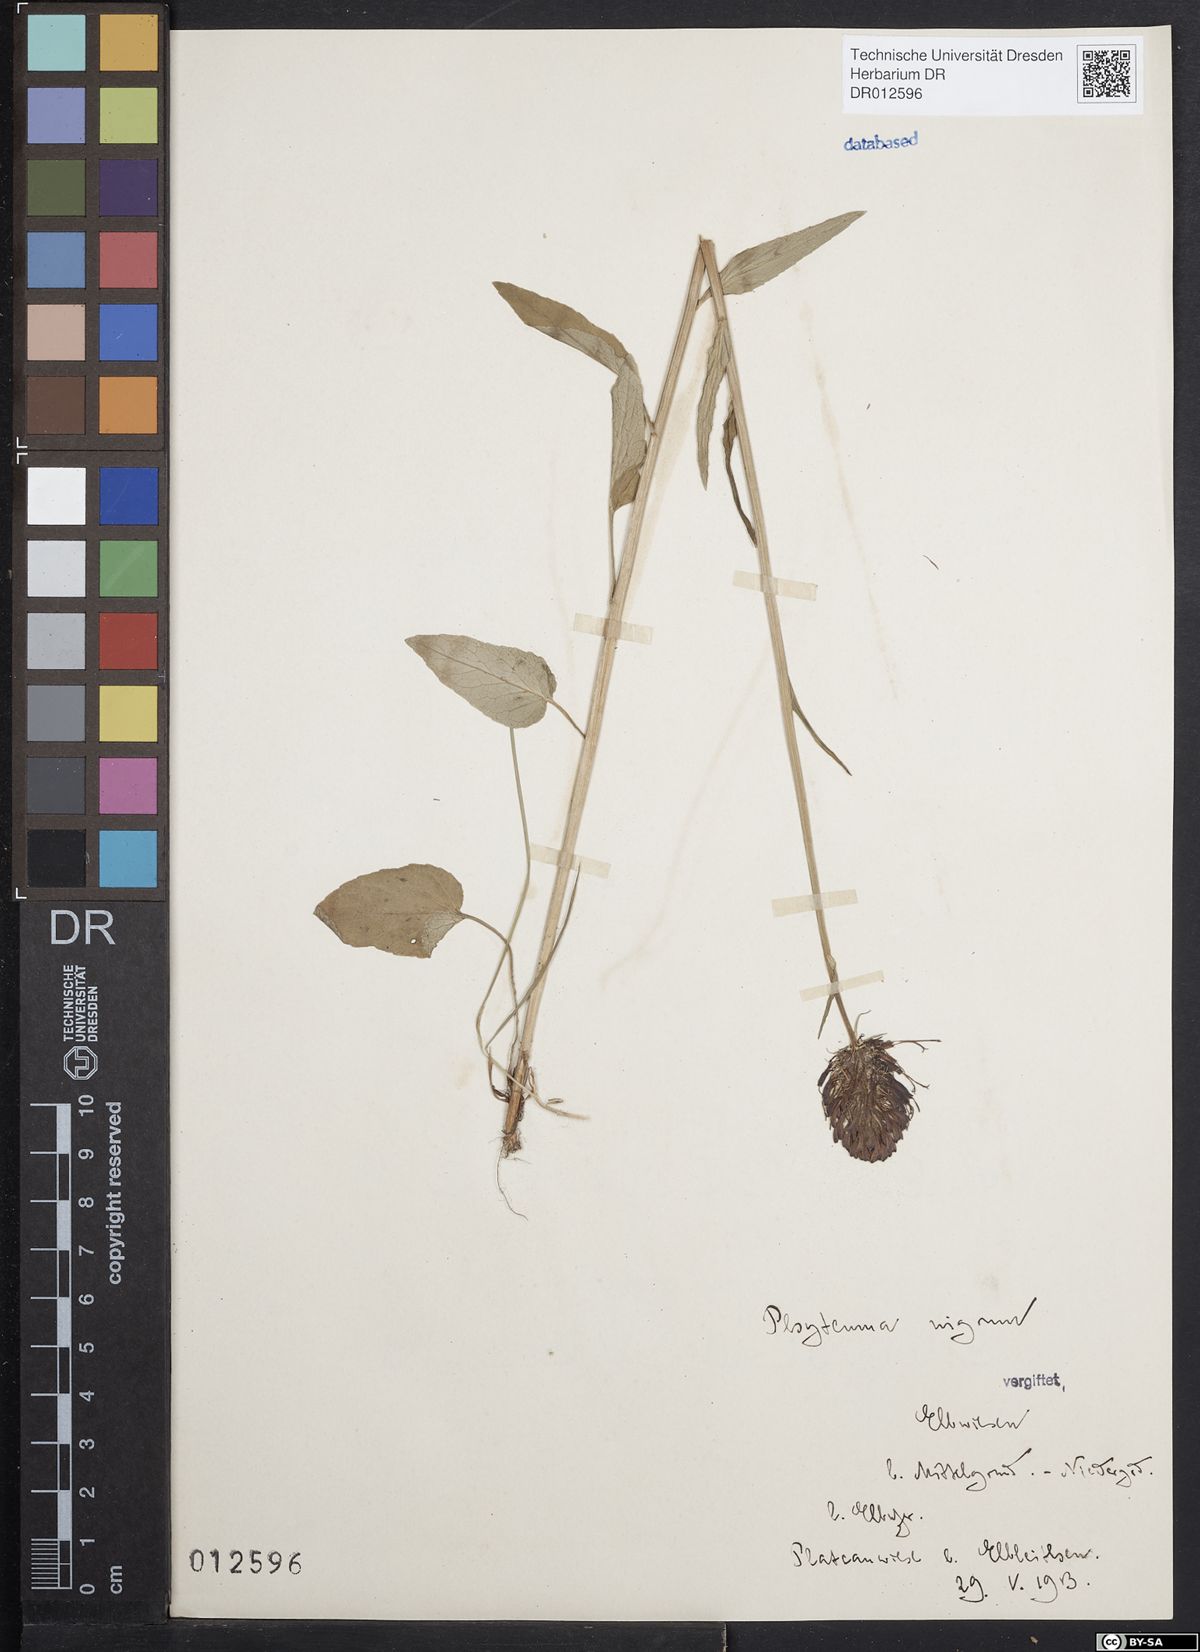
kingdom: Plantae
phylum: Tracheophyta
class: Magnoliopsida
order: Asterales
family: Campanulaceae
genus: Phyteuma
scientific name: Phyteuma nigrum
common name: Black rampion
